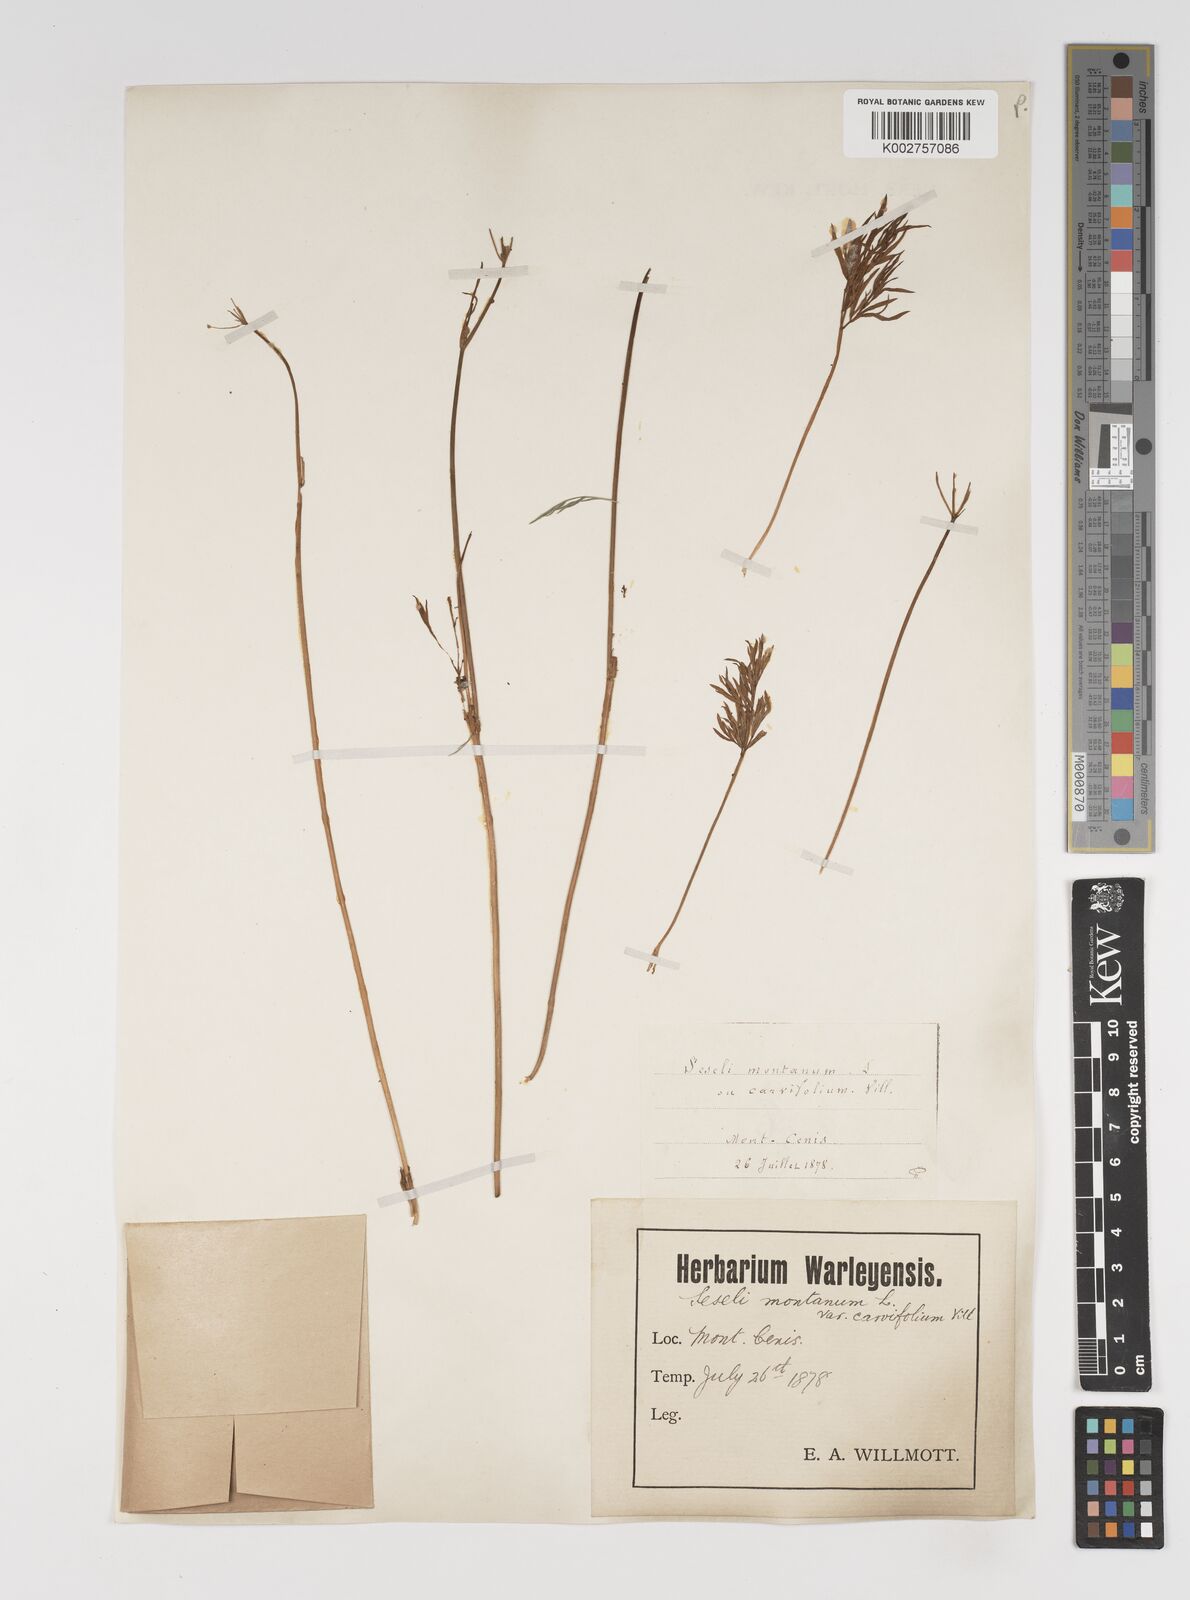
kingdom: Plantae
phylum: Tracheophyta
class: Magnoliopsida
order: Apiales
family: Apiaceae
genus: Seseli
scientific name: Seseli montanum
